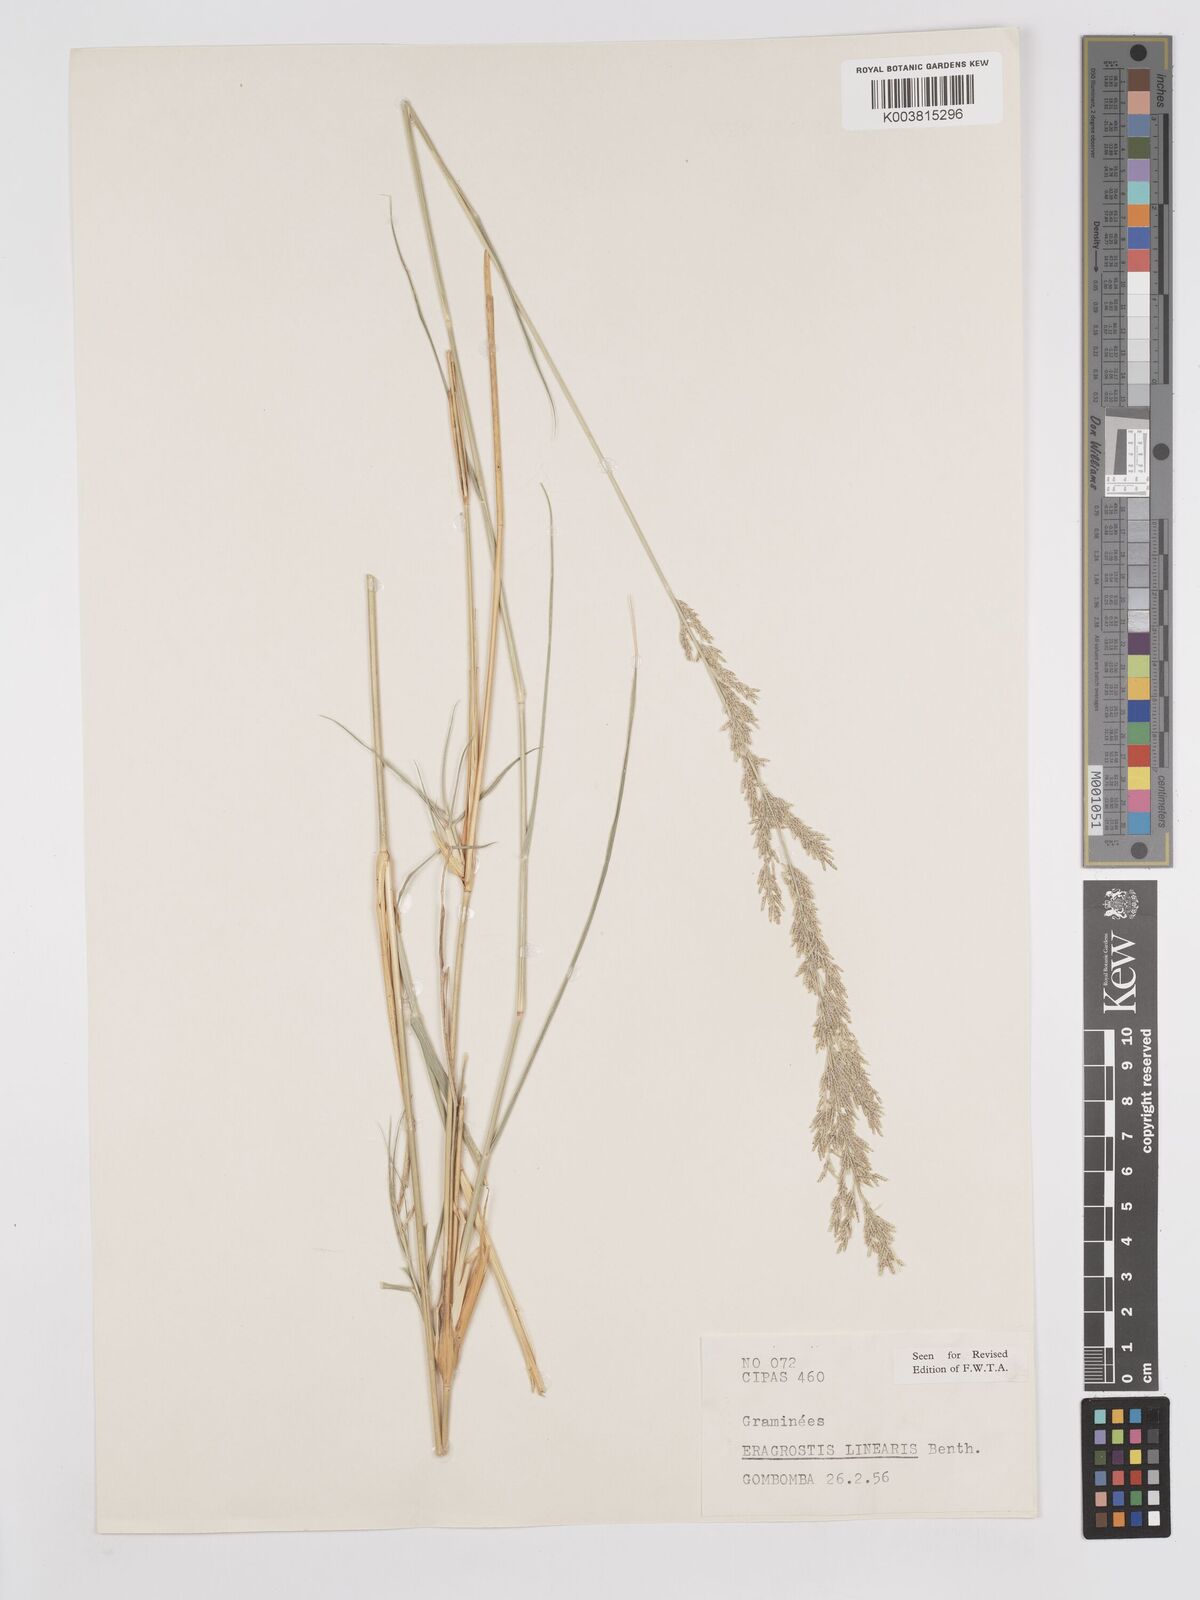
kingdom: Plantae
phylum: Tracheophyta
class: Liliopsida
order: Poales
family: Poaceae
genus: Eragrostis
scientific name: Eragrostis prolifera
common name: Dominican lovegrass
